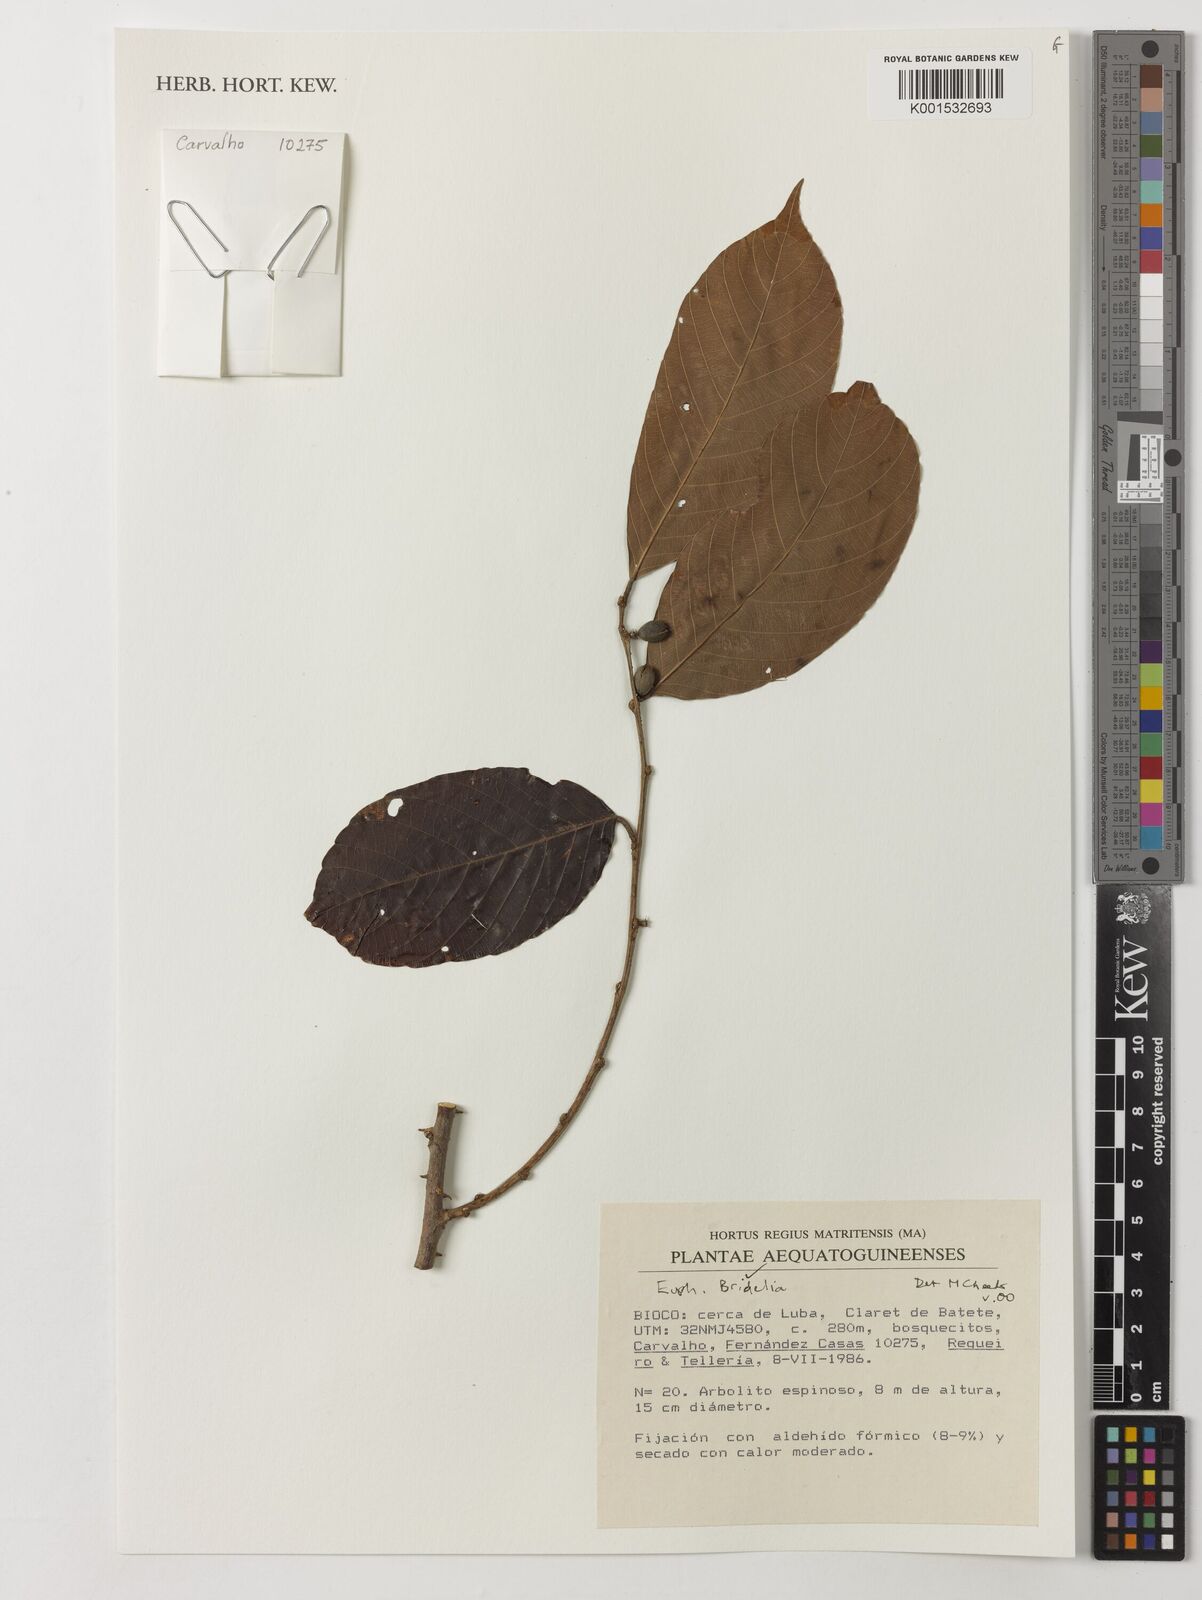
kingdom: Plantae
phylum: Tracheophyta
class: Magnoliopsida
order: Malpighiales
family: Phyllanthaceae
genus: Bridelia
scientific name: Bridelia
